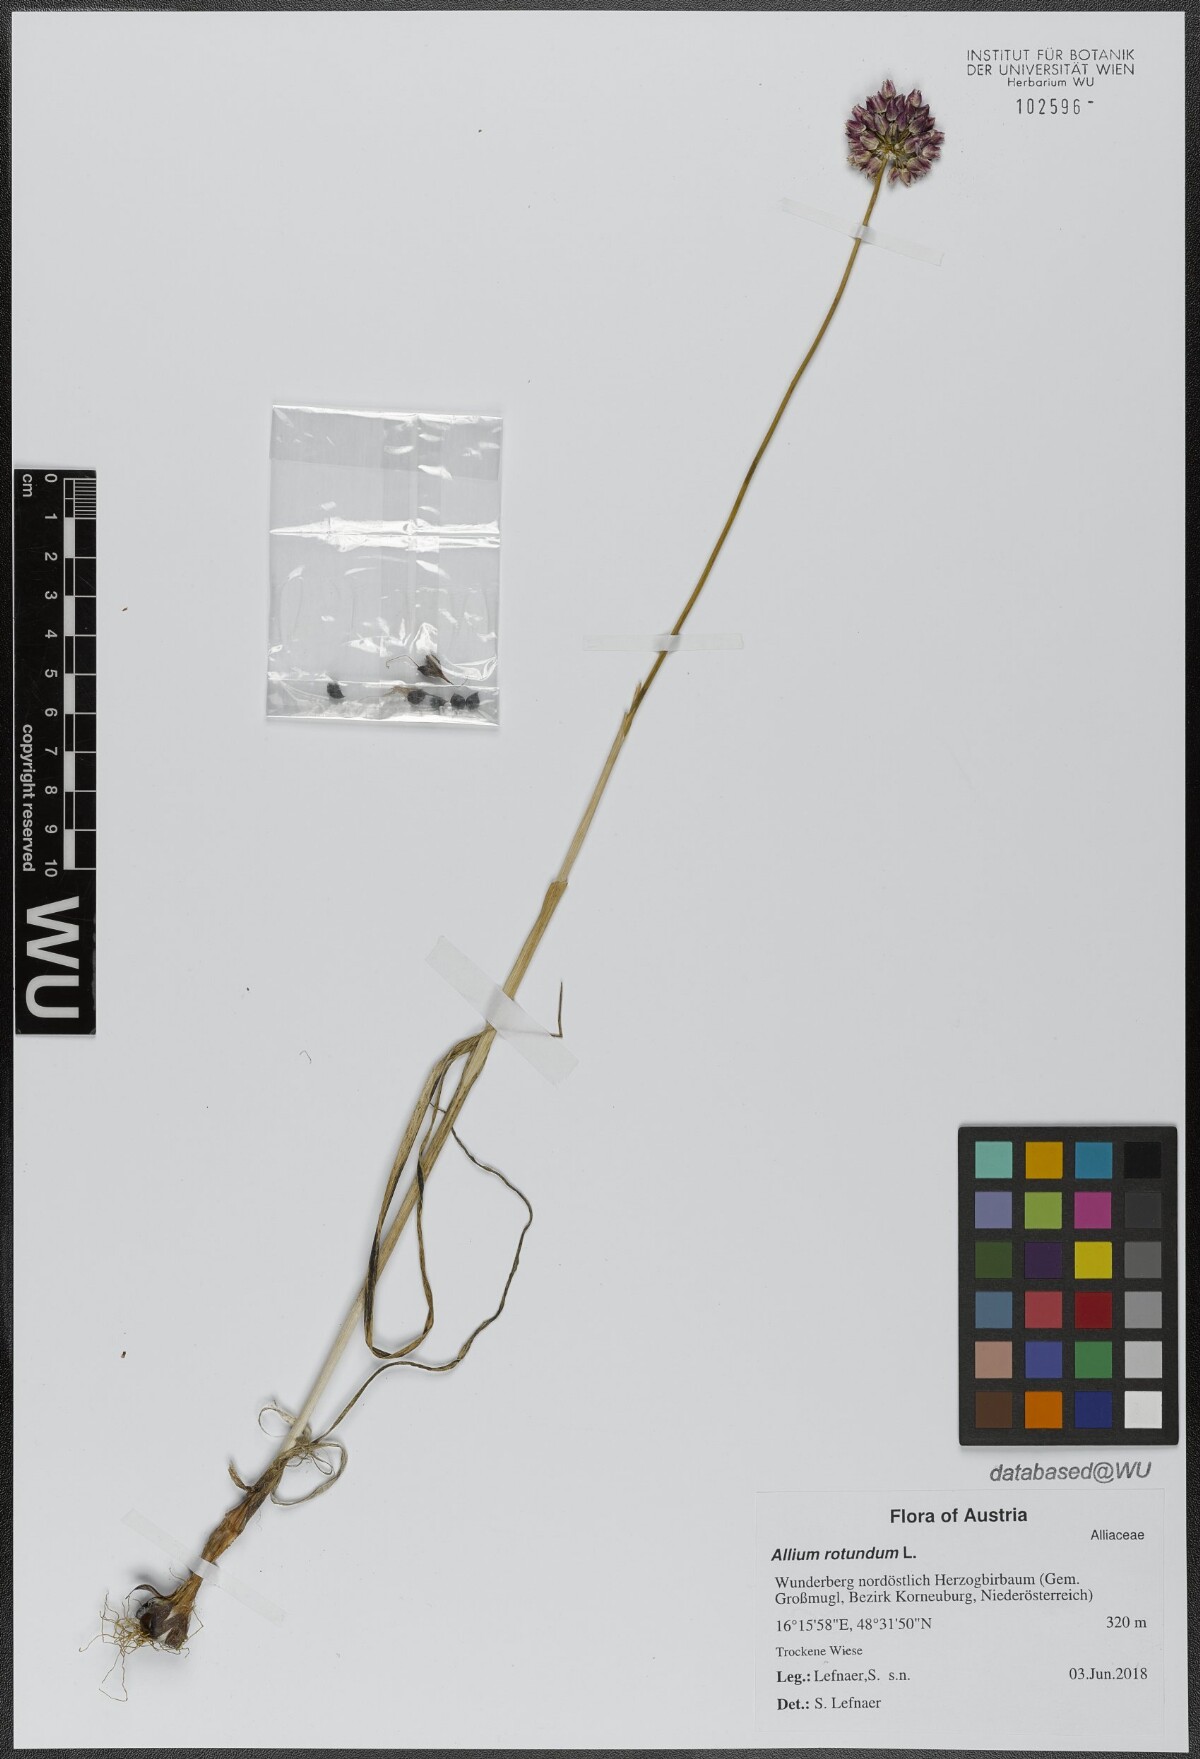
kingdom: Plantae
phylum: Tracheophyta
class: Liliopsida
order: Asparagales
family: Amaryllidaceae
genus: Allium
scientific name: Allium rotundum
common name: Sand leek
